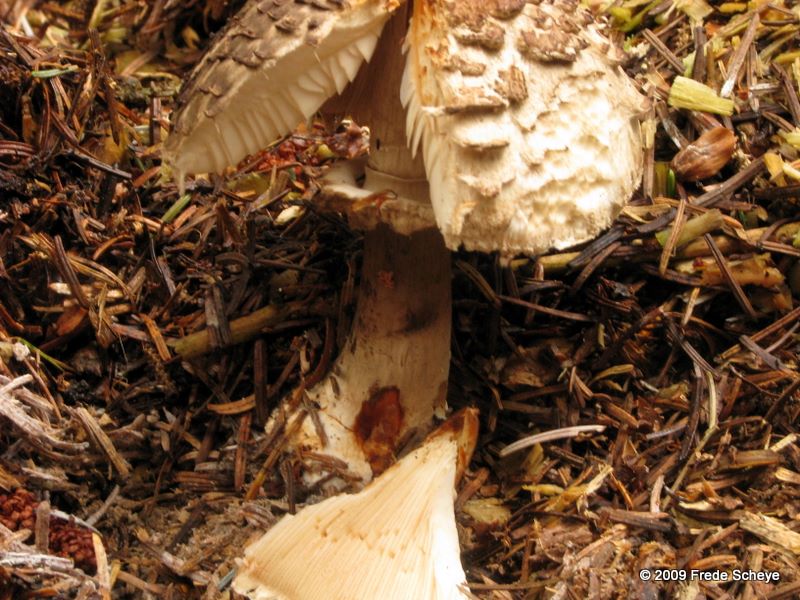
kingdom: Fungi
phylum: Basidiomycota
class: Agaricomycetes
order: Agaricales
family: Agaricaceae
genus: Chlorophyllum
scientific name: Chlorophyllum olivieri
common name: almindelig rabarberhat
